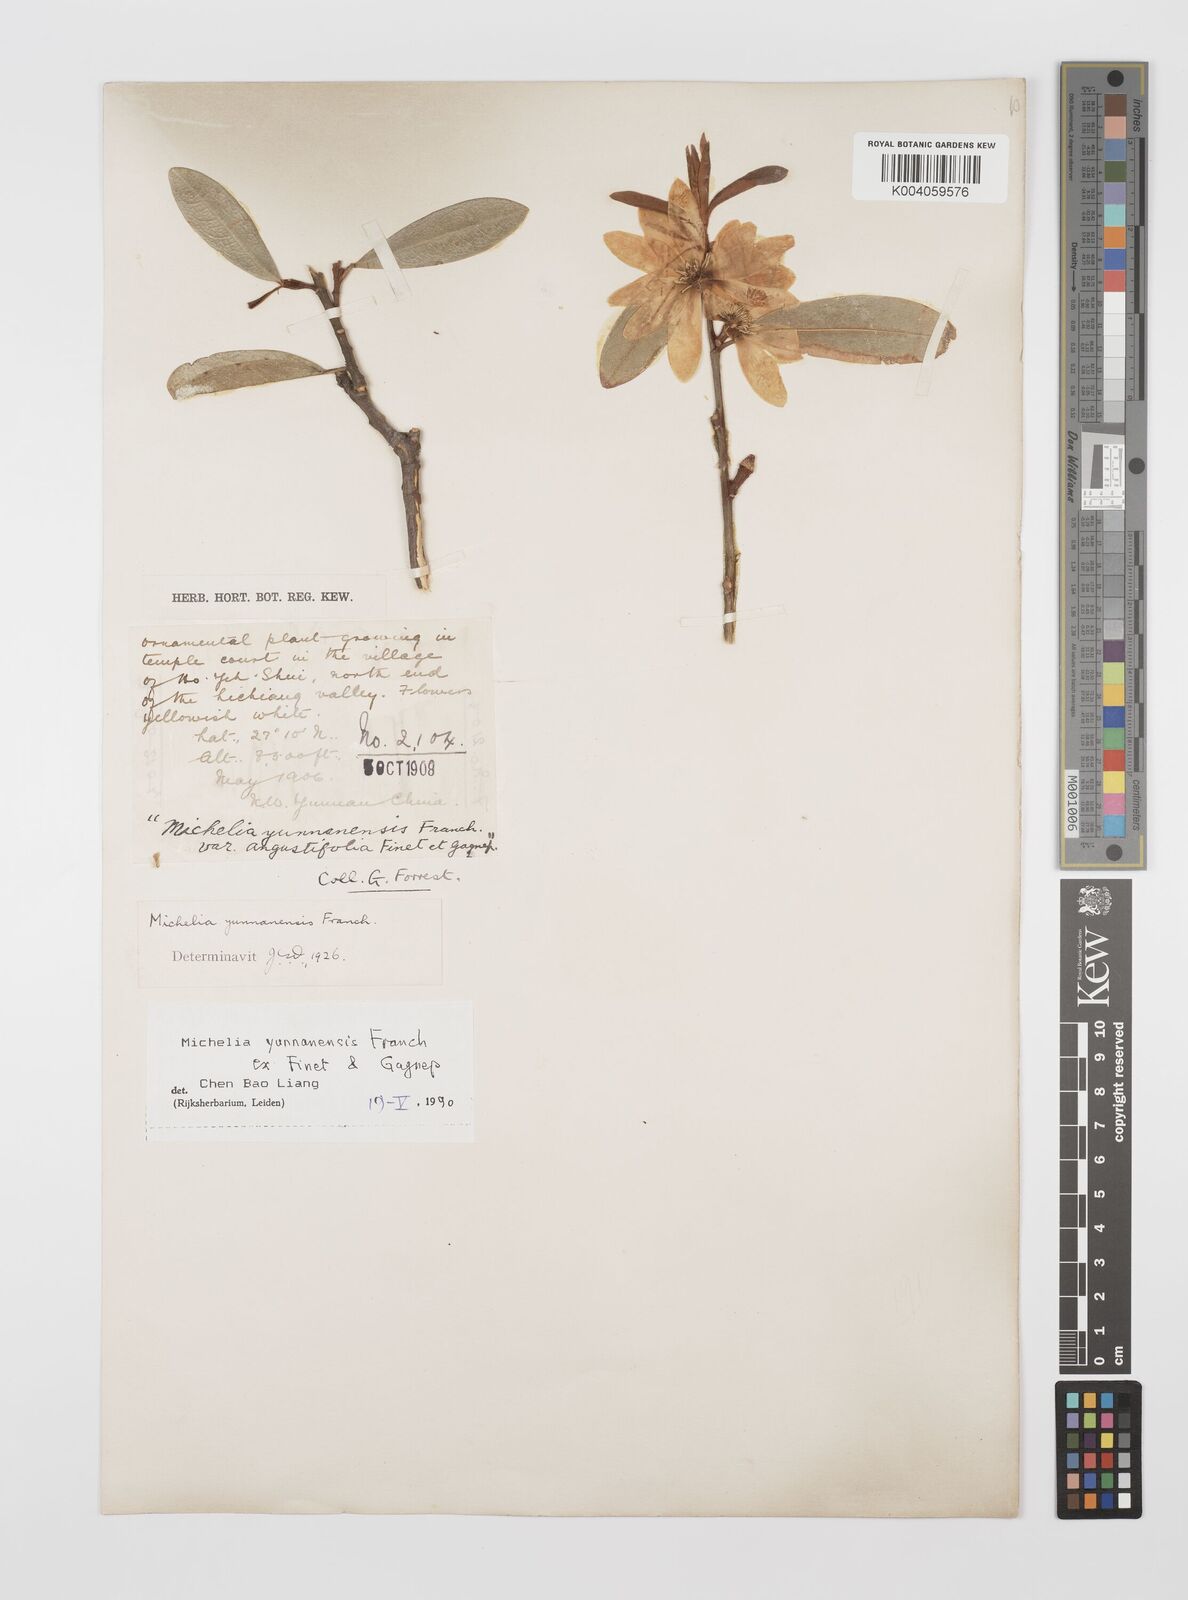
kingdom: Plantae
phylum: Tracheophyta
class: Magnoliopsida
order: Magnoliales
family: Magnoliaceae
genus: Magnolia
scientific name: Magnolia laevifolia
